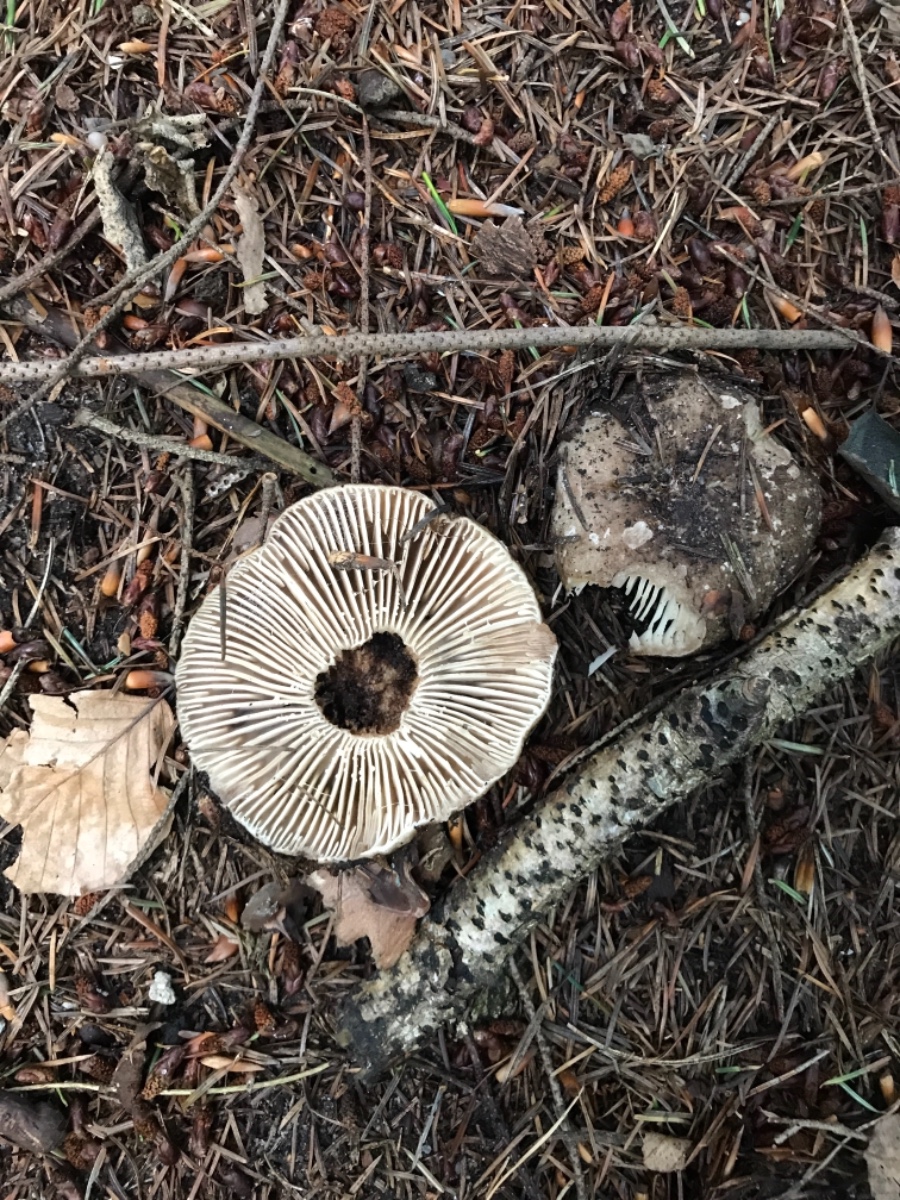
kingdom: Fungi
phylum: Basidiomycota
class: Agaricomycetes
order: Russulales
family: Russulaceae
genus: Russula
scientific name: Russula adusta
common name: sværtende skørhat
